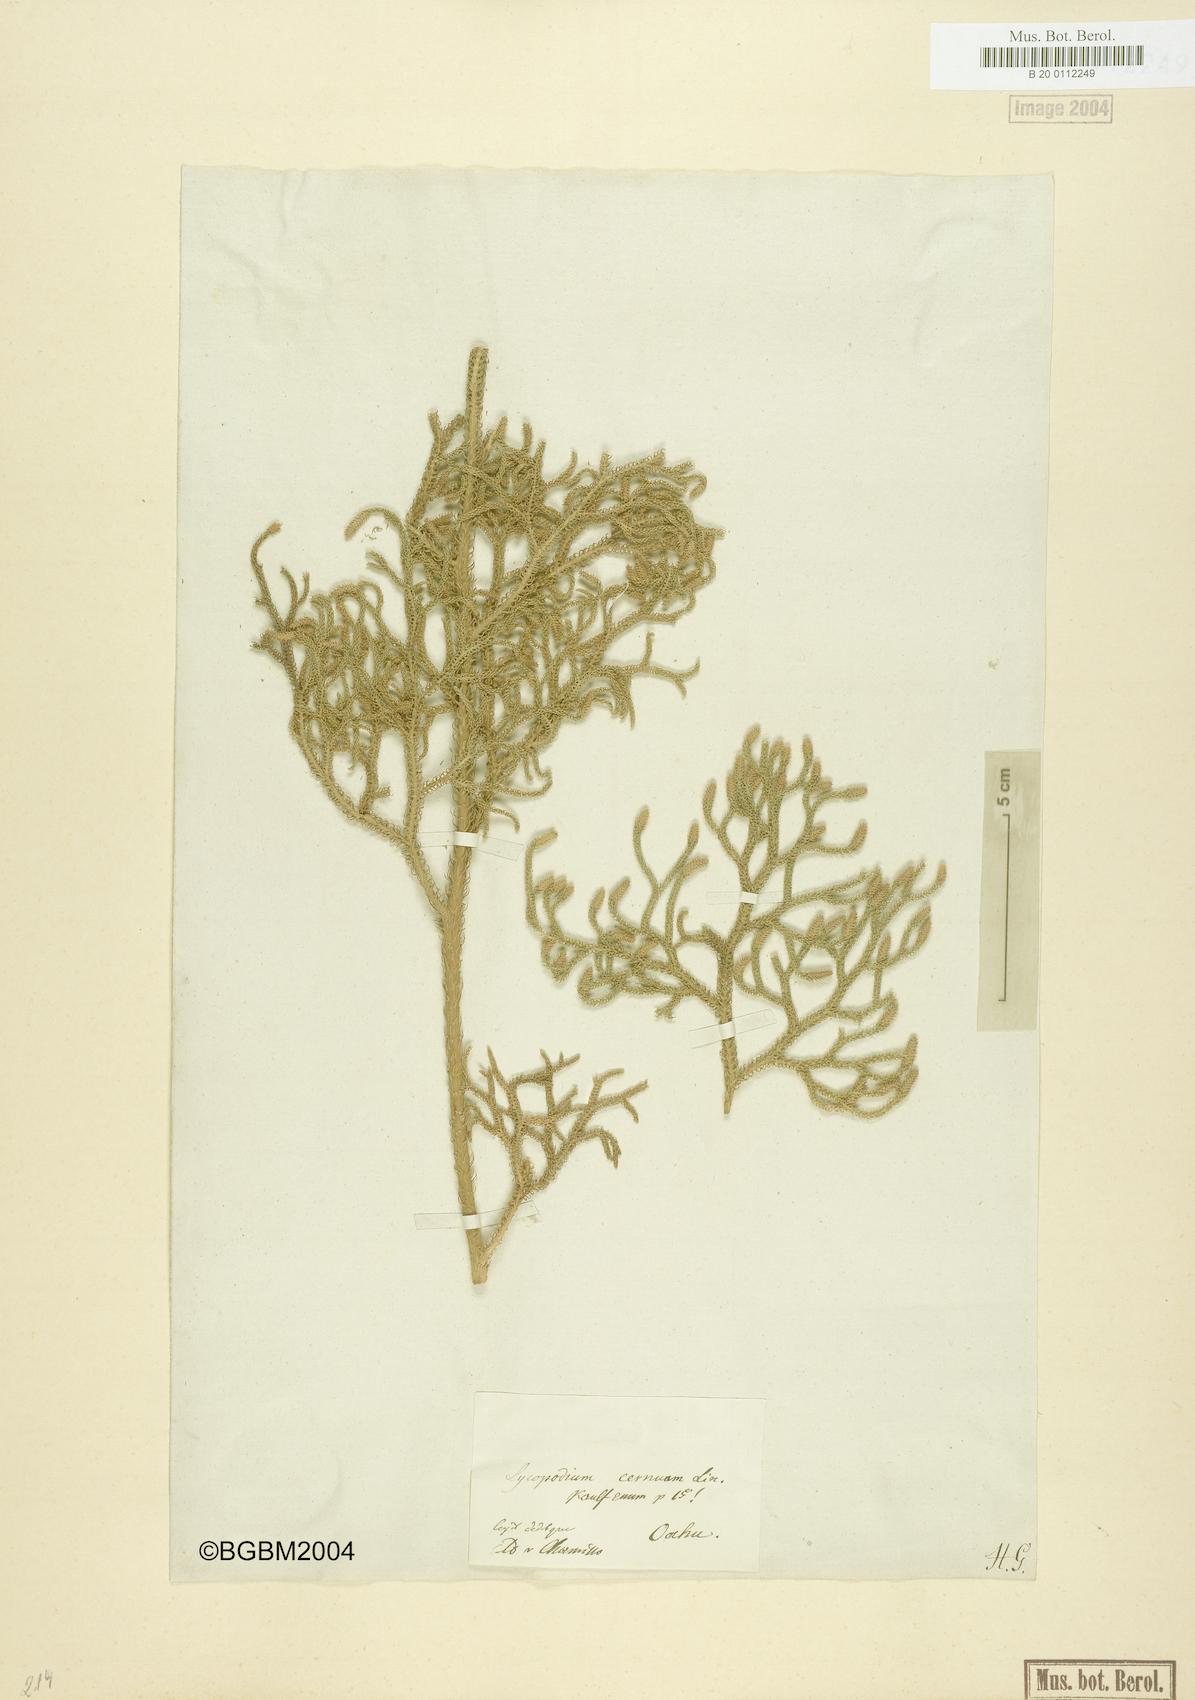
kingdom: Plantae
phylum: Tracheophyta
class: Lycopodiopsida
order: Lycopodiales
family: Lycopodiaceae
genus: Palhinhaea
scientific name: Palhinhaea cernua
